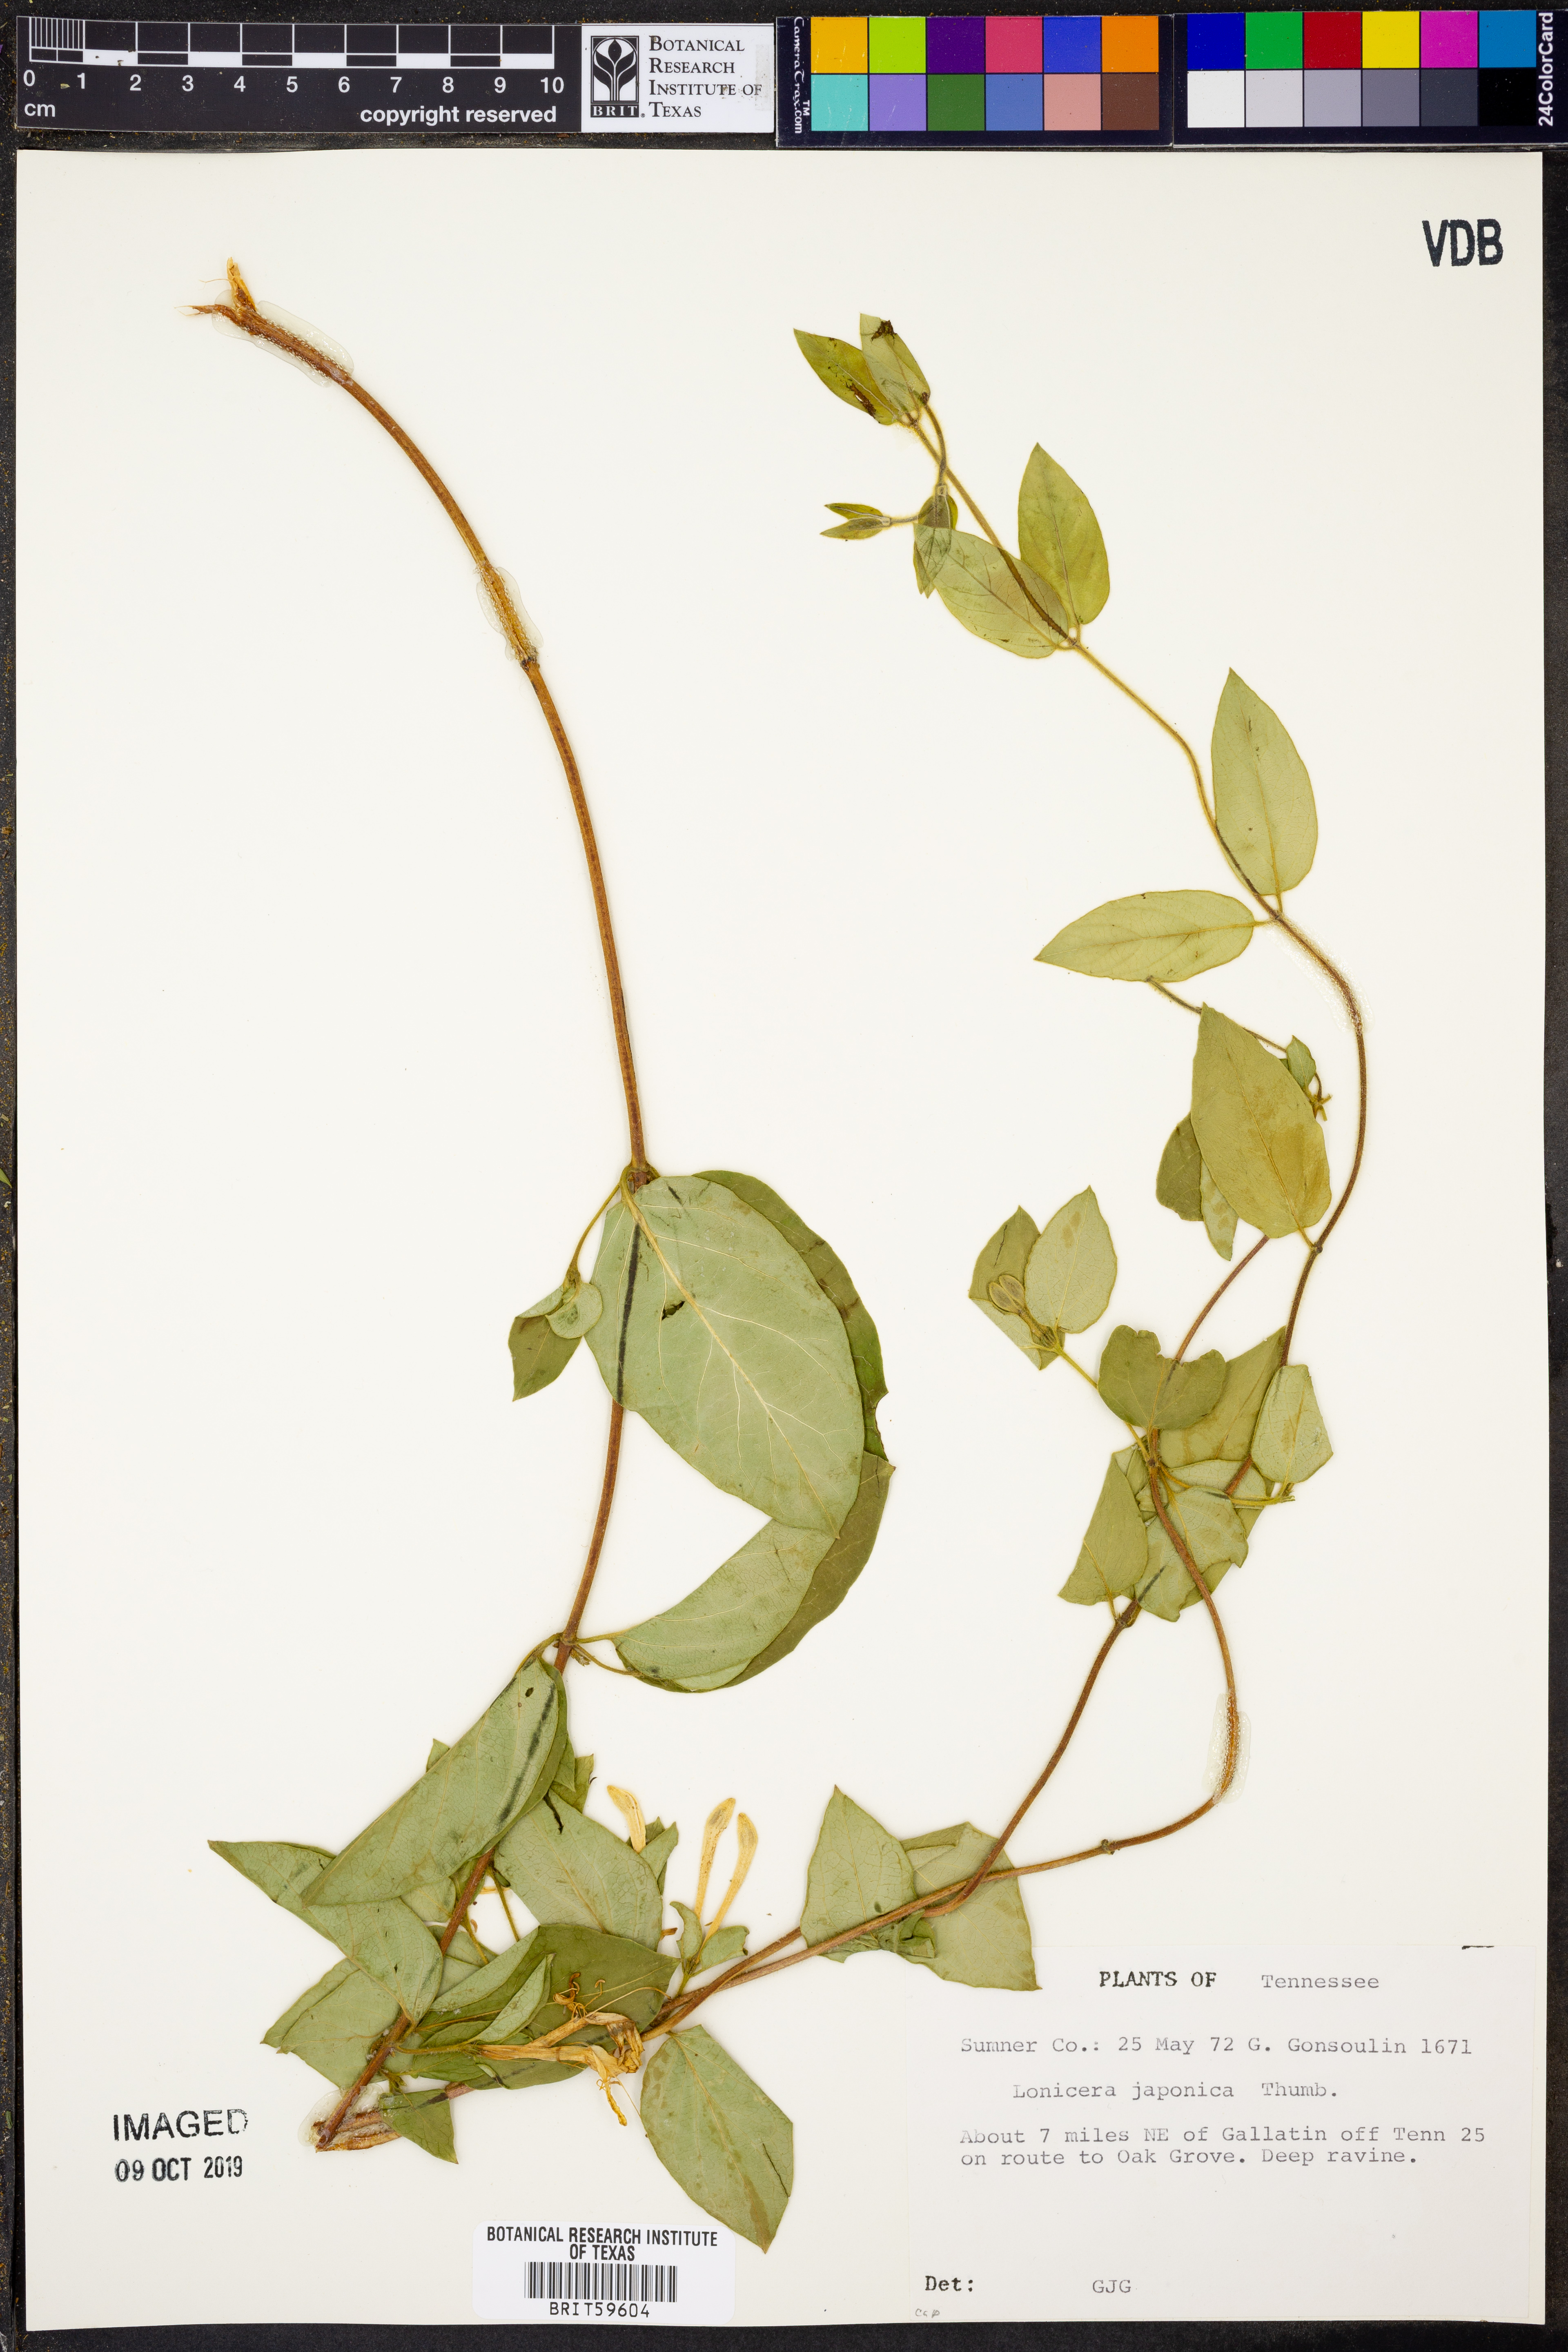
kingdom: Plantae
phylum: Tracheophyta
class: Magnoliopsida
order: Dipsacales
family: Caprifoliaceae
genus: Lonicera
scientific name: Lonicera japonica
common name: Japanese honeysuckle
